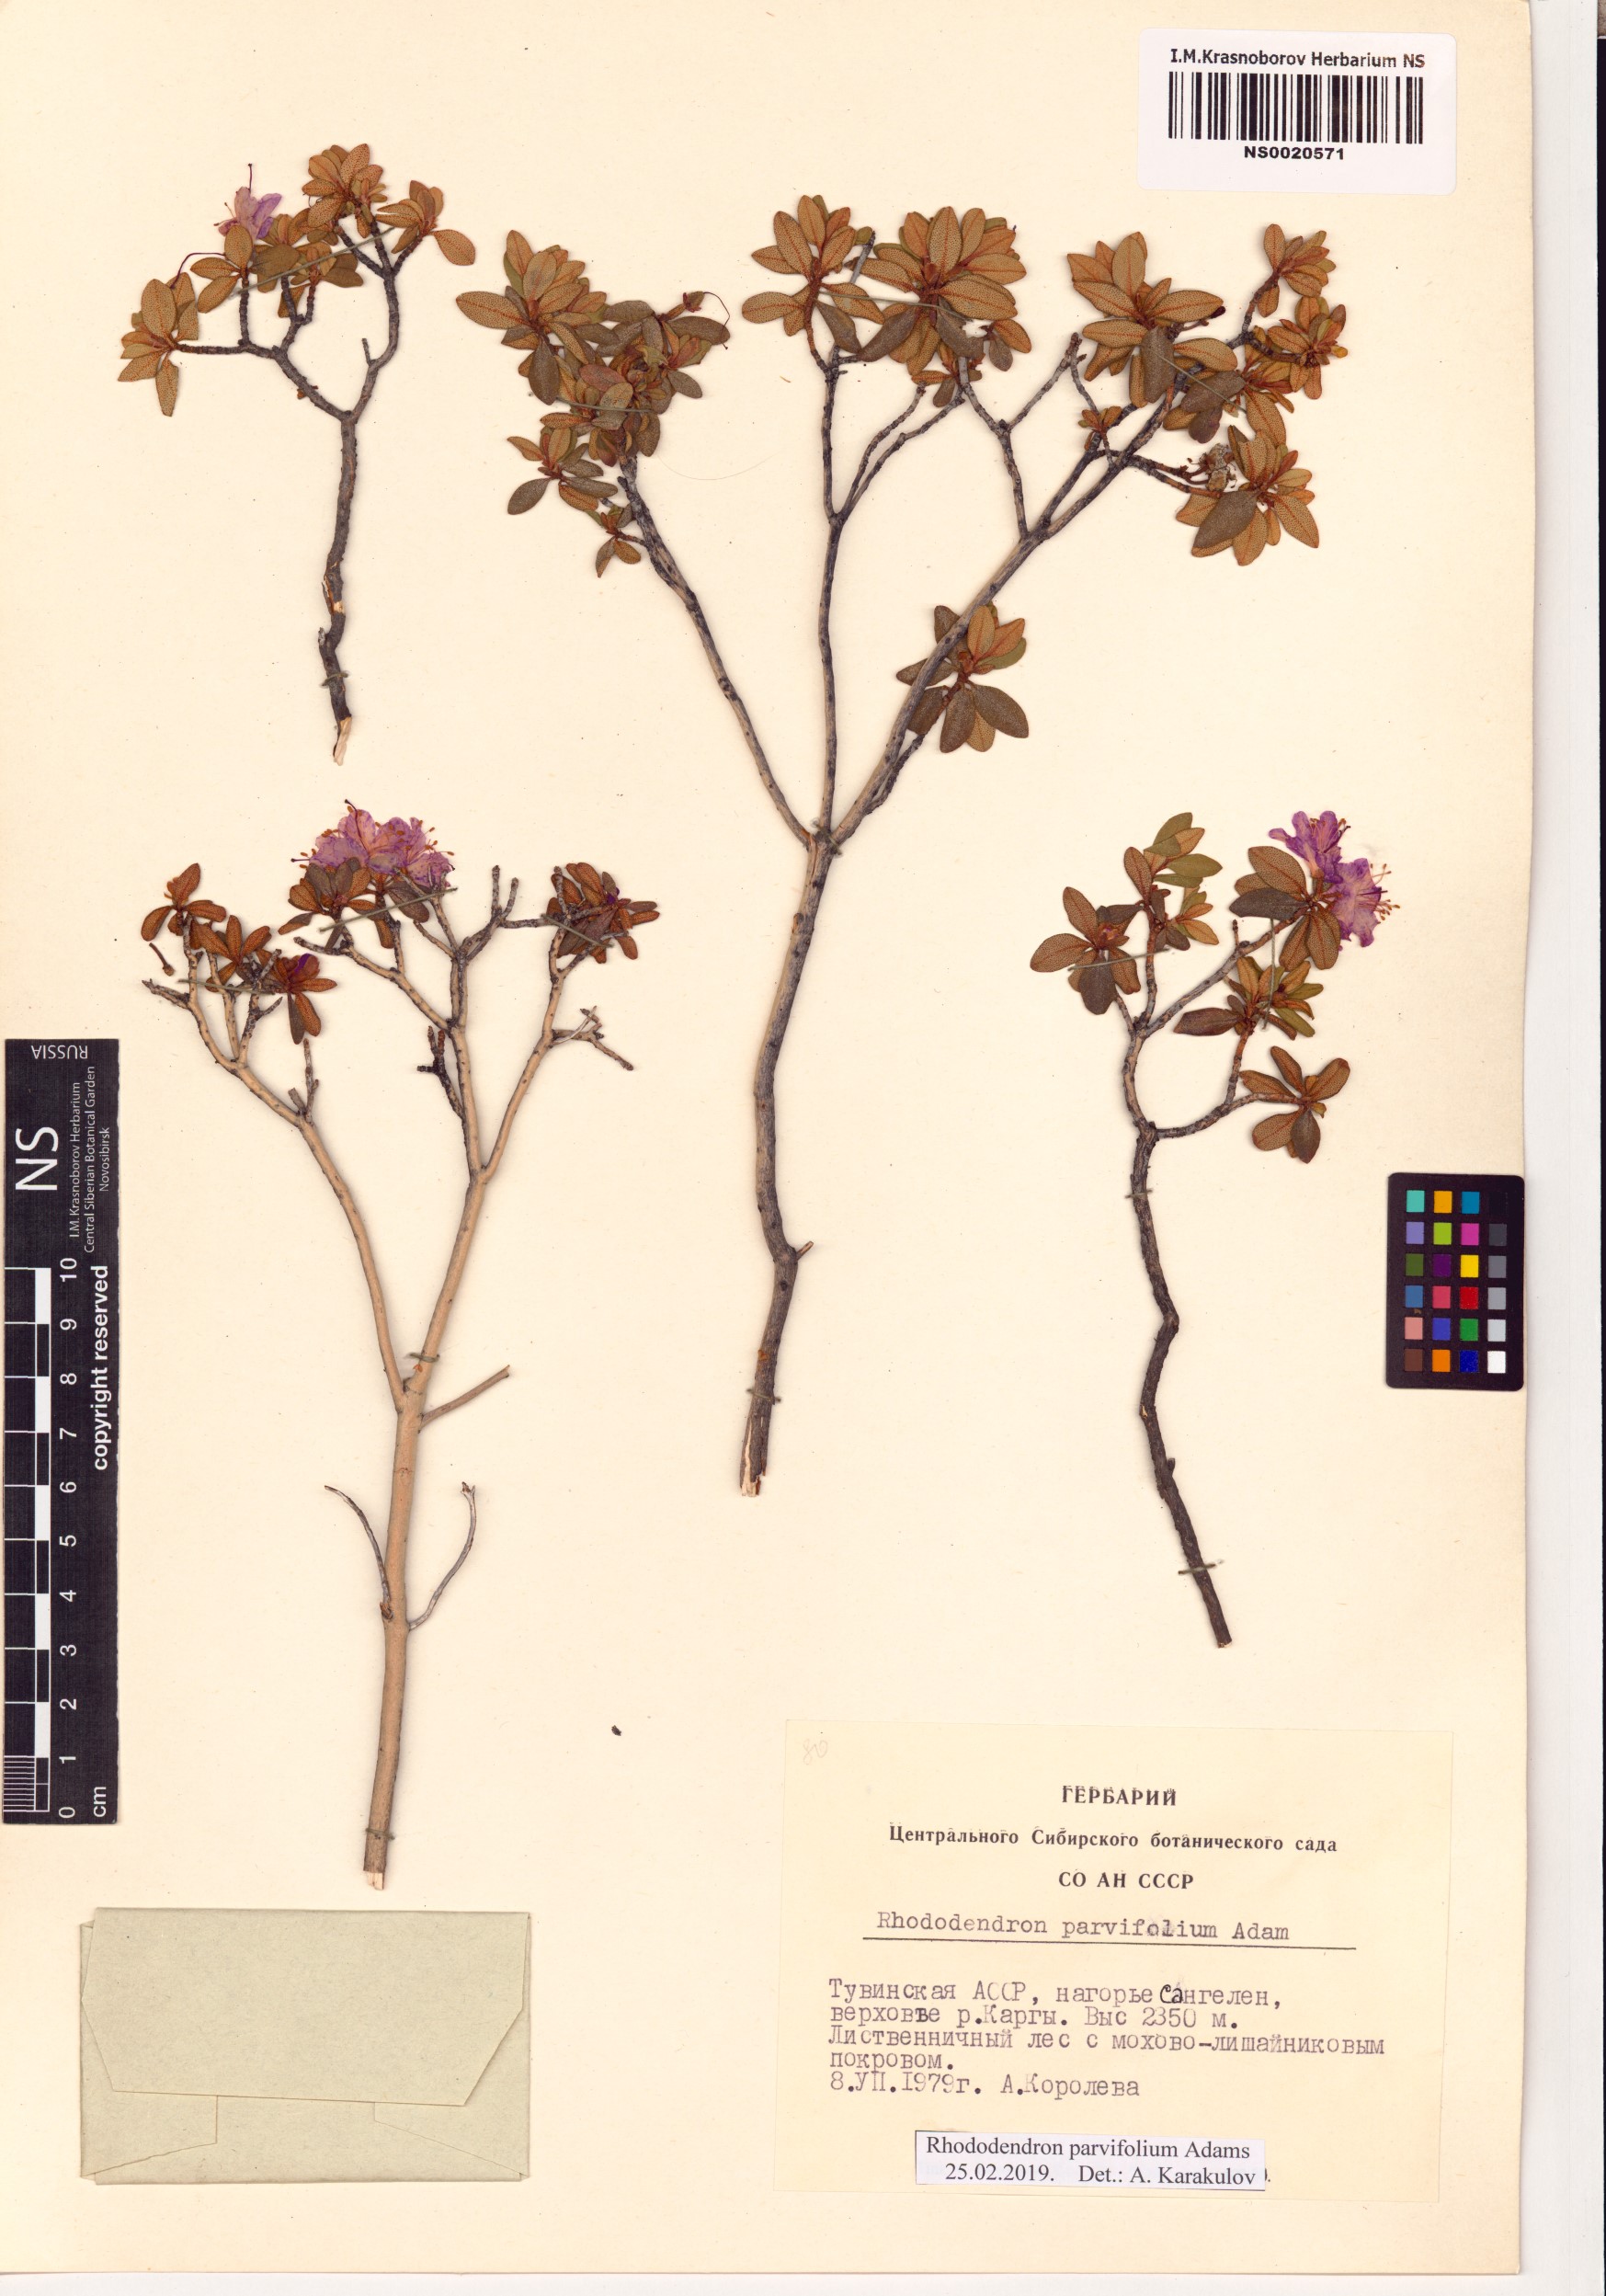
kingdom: Plantae
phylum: Tracheophyta
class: Magnoliopsida
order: Ericales
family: Ericaceae
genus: Rhododendron
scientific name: Rhododendron parvifolium
